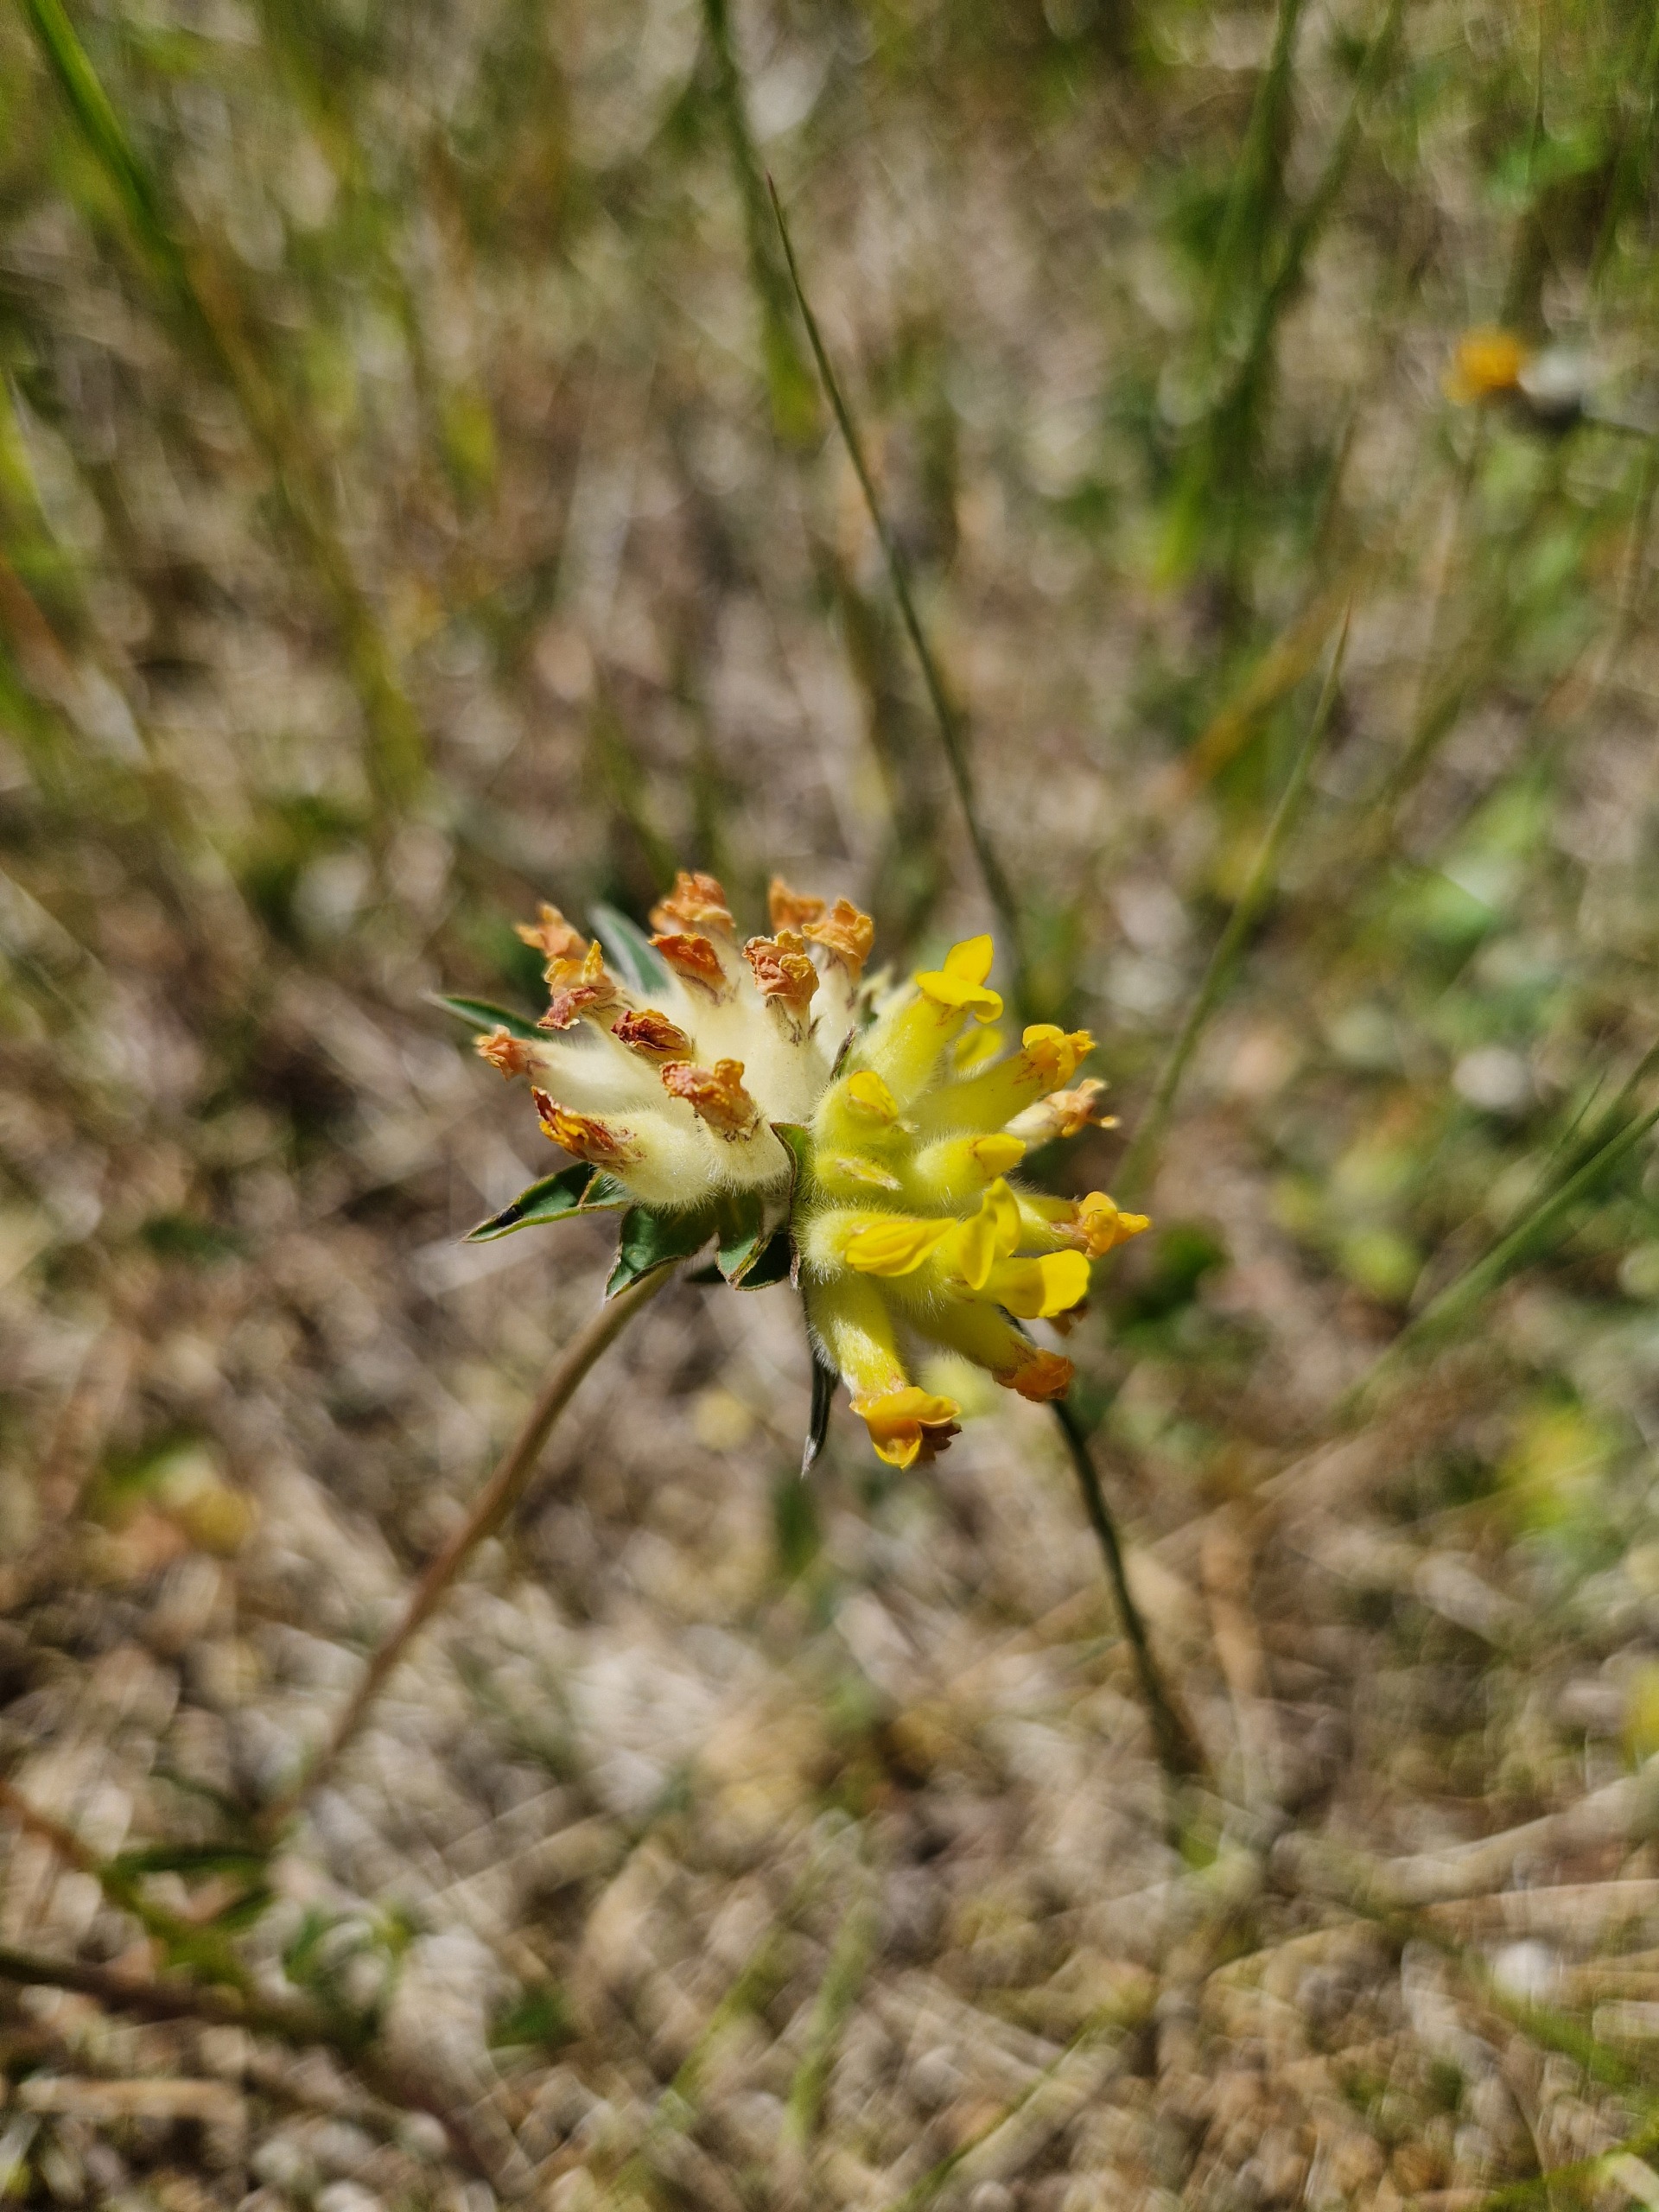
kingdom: Plantae
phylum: Tracheophyta
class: Magnoliopsida
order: Fabales
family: Fabaceae
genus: Anthyllis
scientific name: Anthyllis vulneraria
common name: Rundbælg
